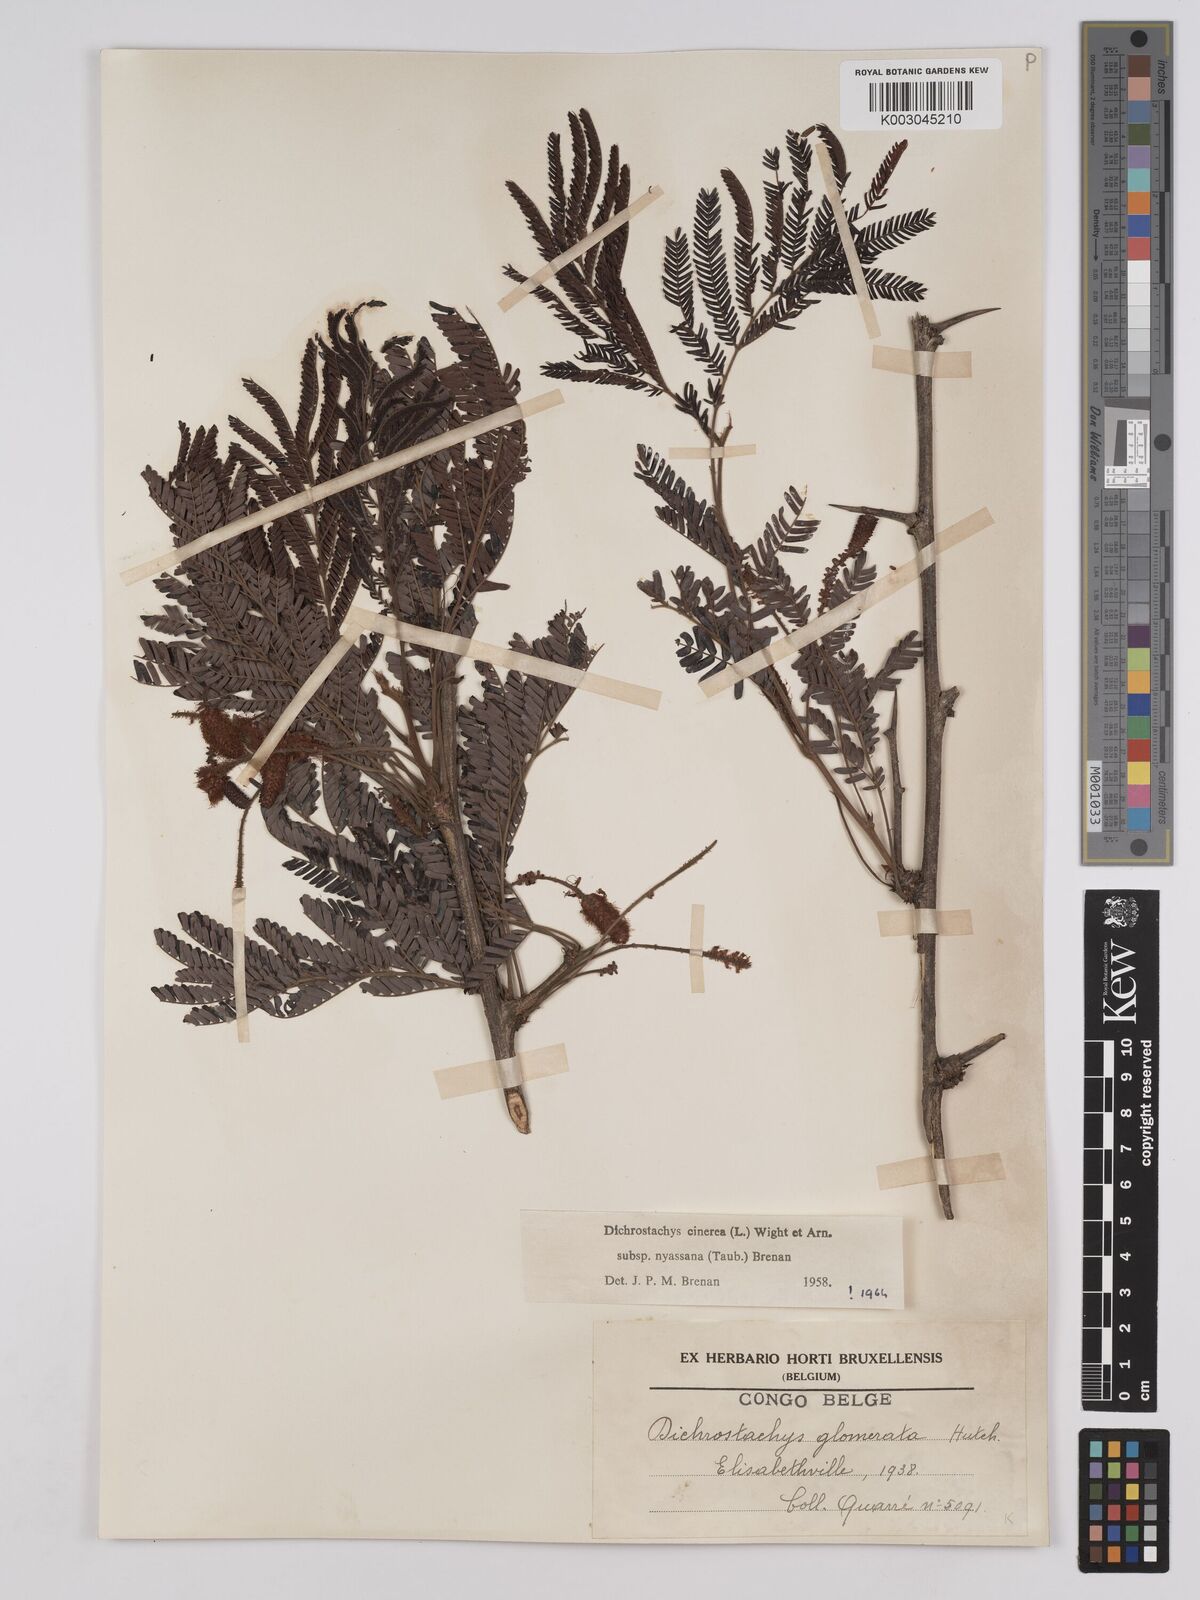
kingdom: Plantae
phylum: Tracheophyta
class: Magnoliopsida
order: Fabales
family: Fabaceae
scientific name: Fabaceae
